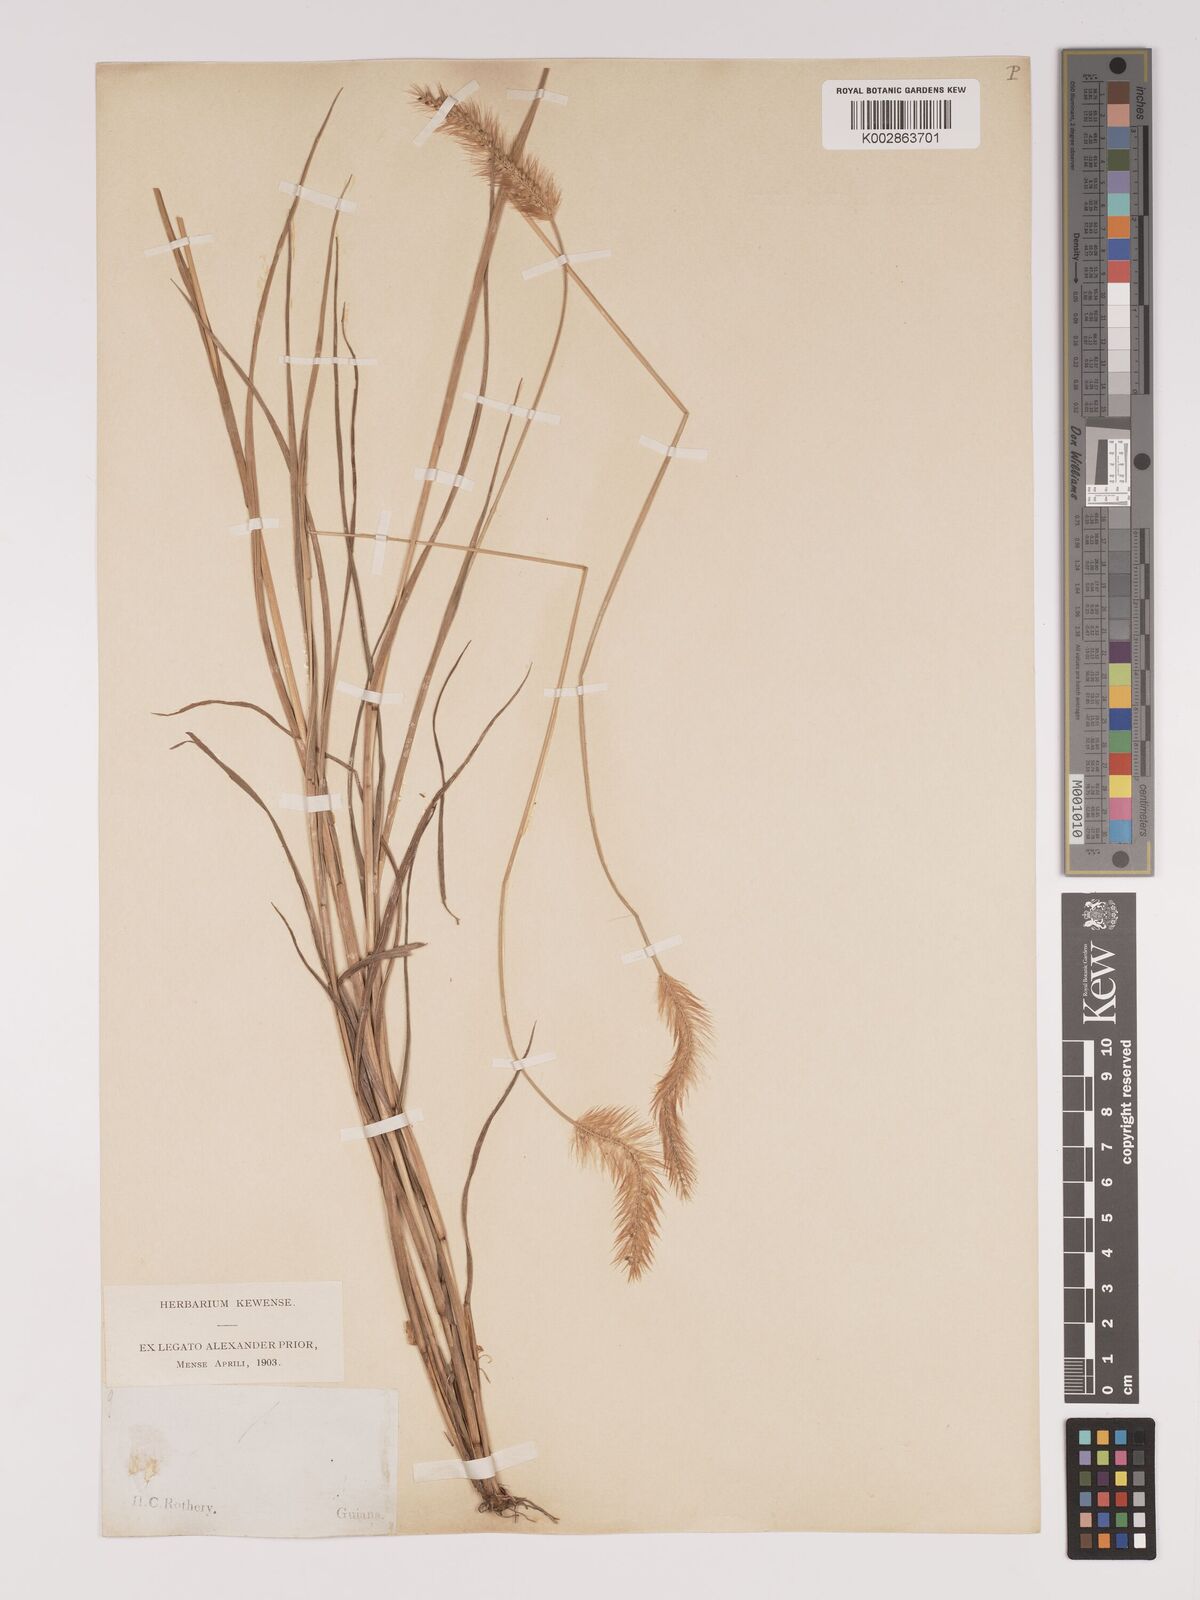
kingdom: Plantae
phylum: Tracheophyta
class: Liliopsida
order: Poales
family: Poaceae
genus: Setaria
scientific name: Setaria parviflora
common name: Knotroot bristle-grass
